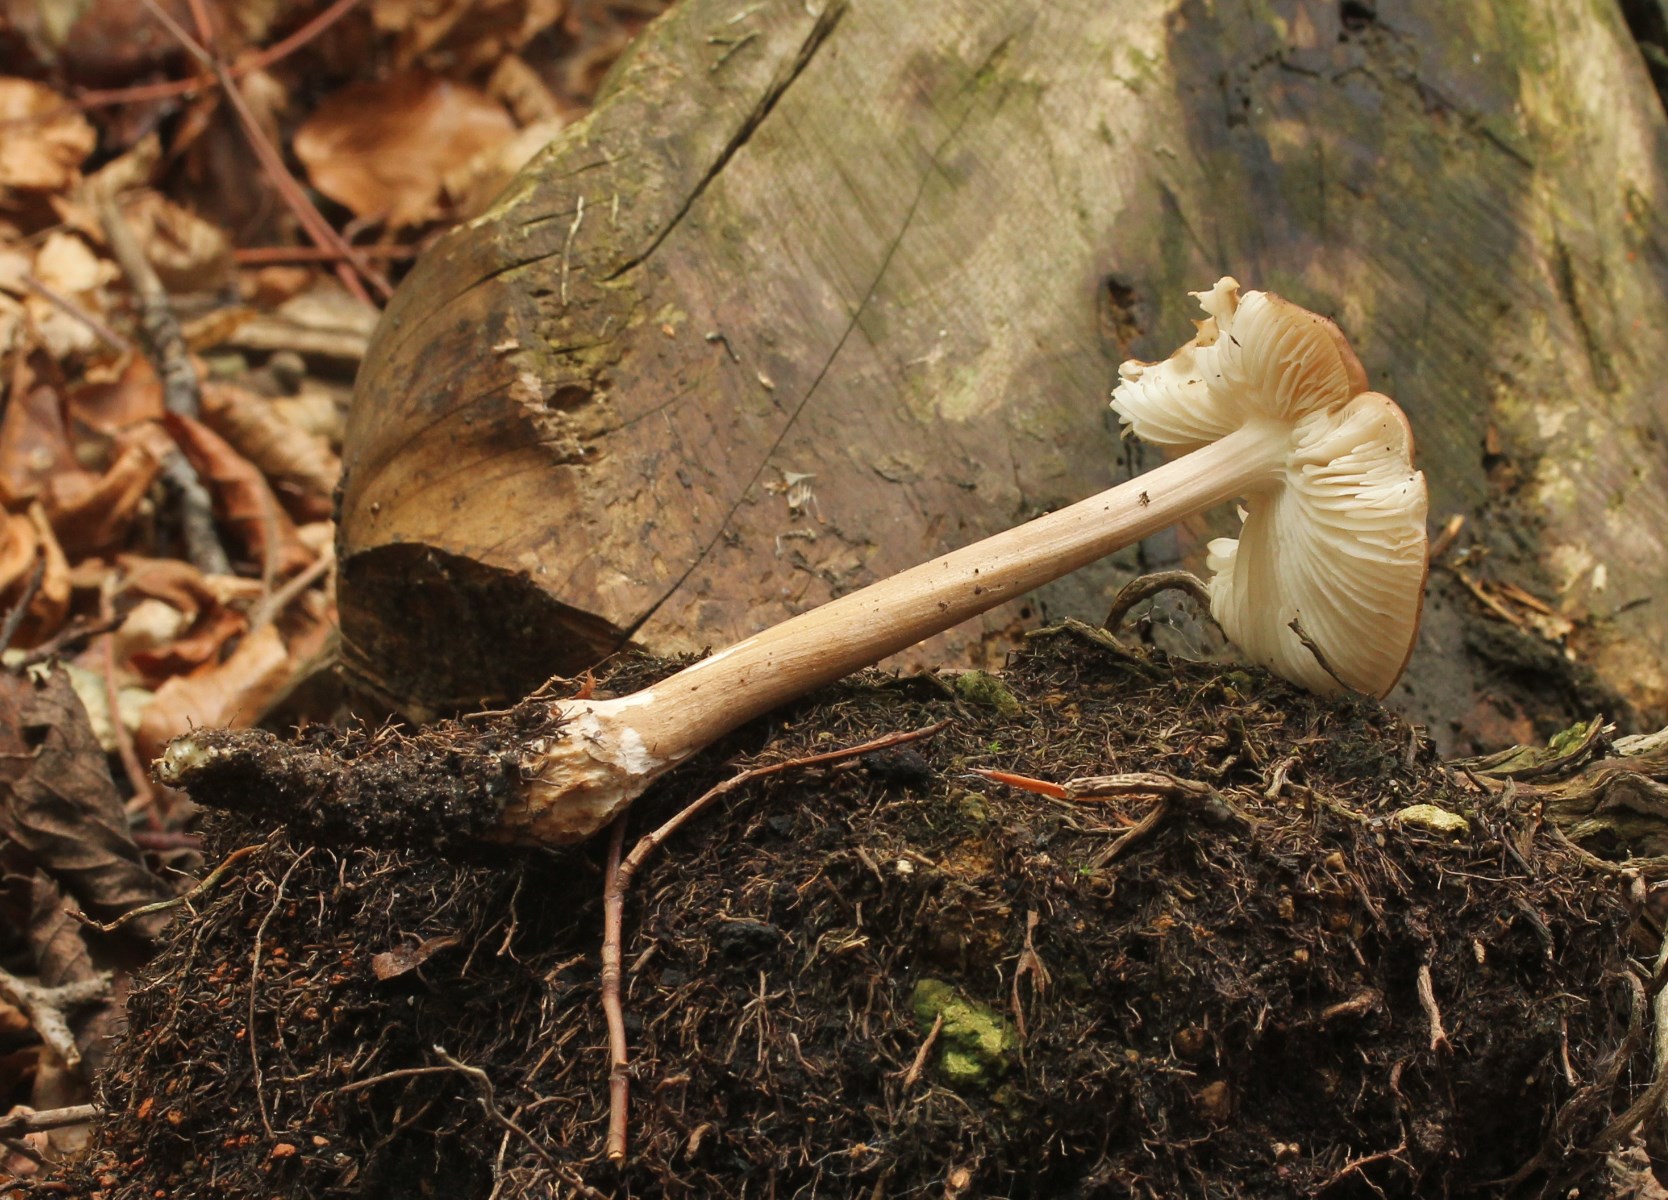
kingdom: Fungi
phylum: Basidiomycota
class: Agaricomycetes
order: Agaricales
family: Physalacriaceae
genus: Hymenopellis
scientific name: Hymenopellis radicata
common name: almindelig pælerodshat
